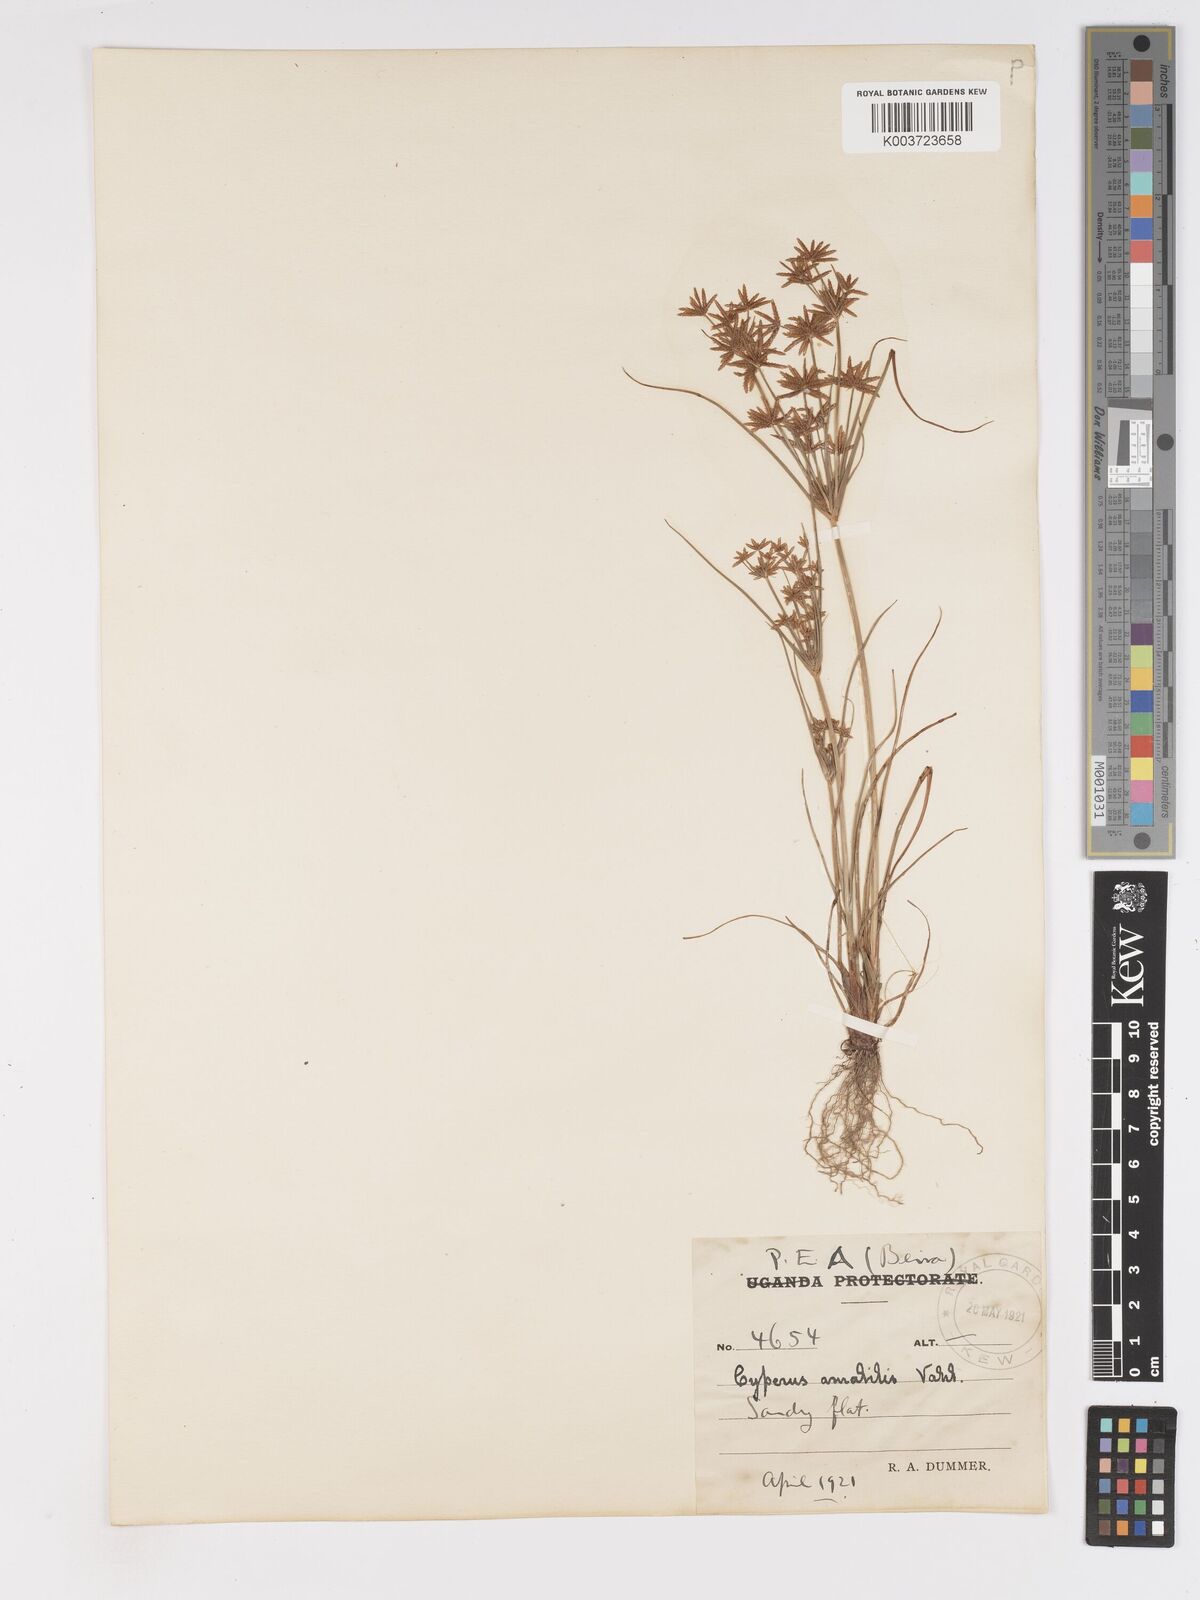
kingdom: Plantae
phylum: Tracheophyta
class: Liliopsida
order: Poales
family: Cyperaceae
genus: Cyperus
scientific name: Cyperus amabilis
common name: Foothill flat sedge
